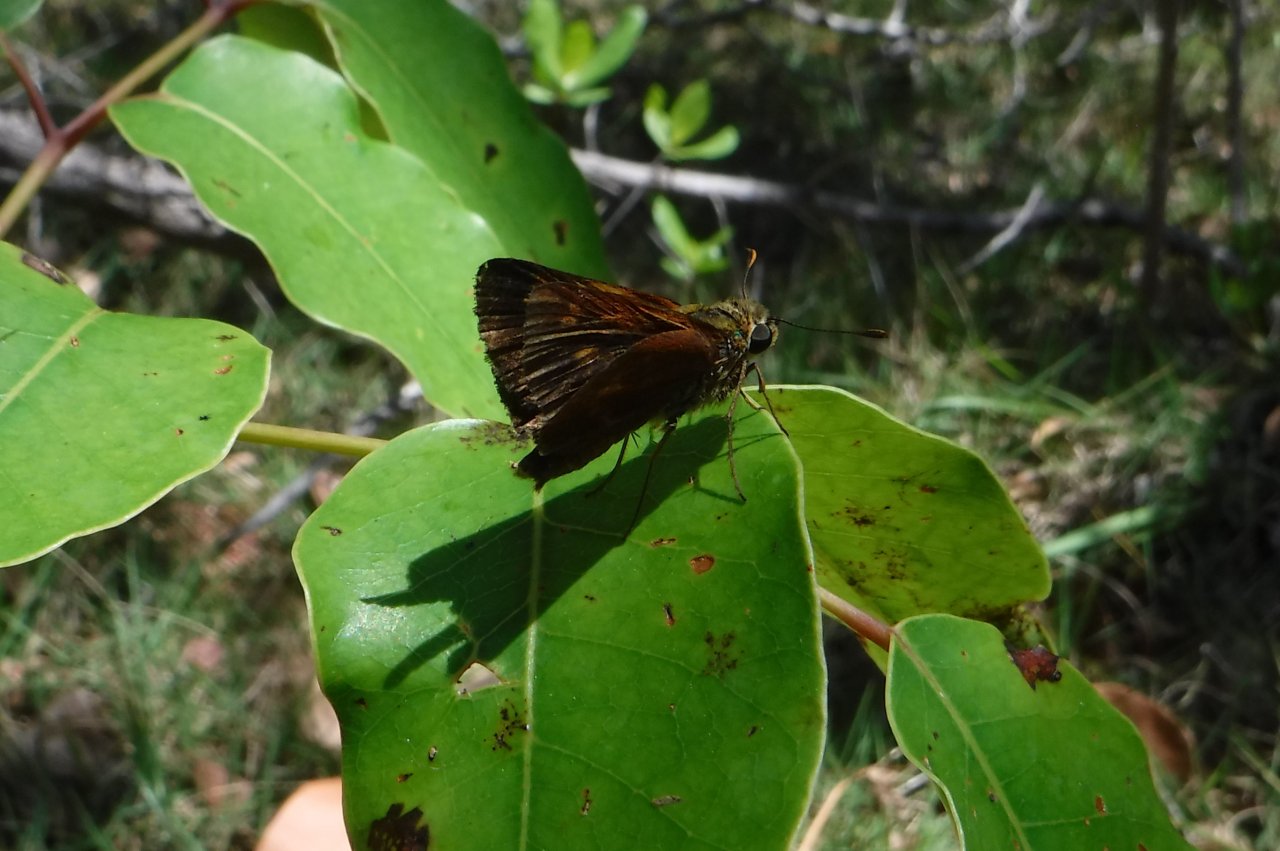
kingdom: Animalia
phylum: Arthropoda
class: Insecta
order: Lepidoptera
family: Hesperiidae
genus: Polites
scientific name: Polites baracoa
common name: Baracoa Skipper
